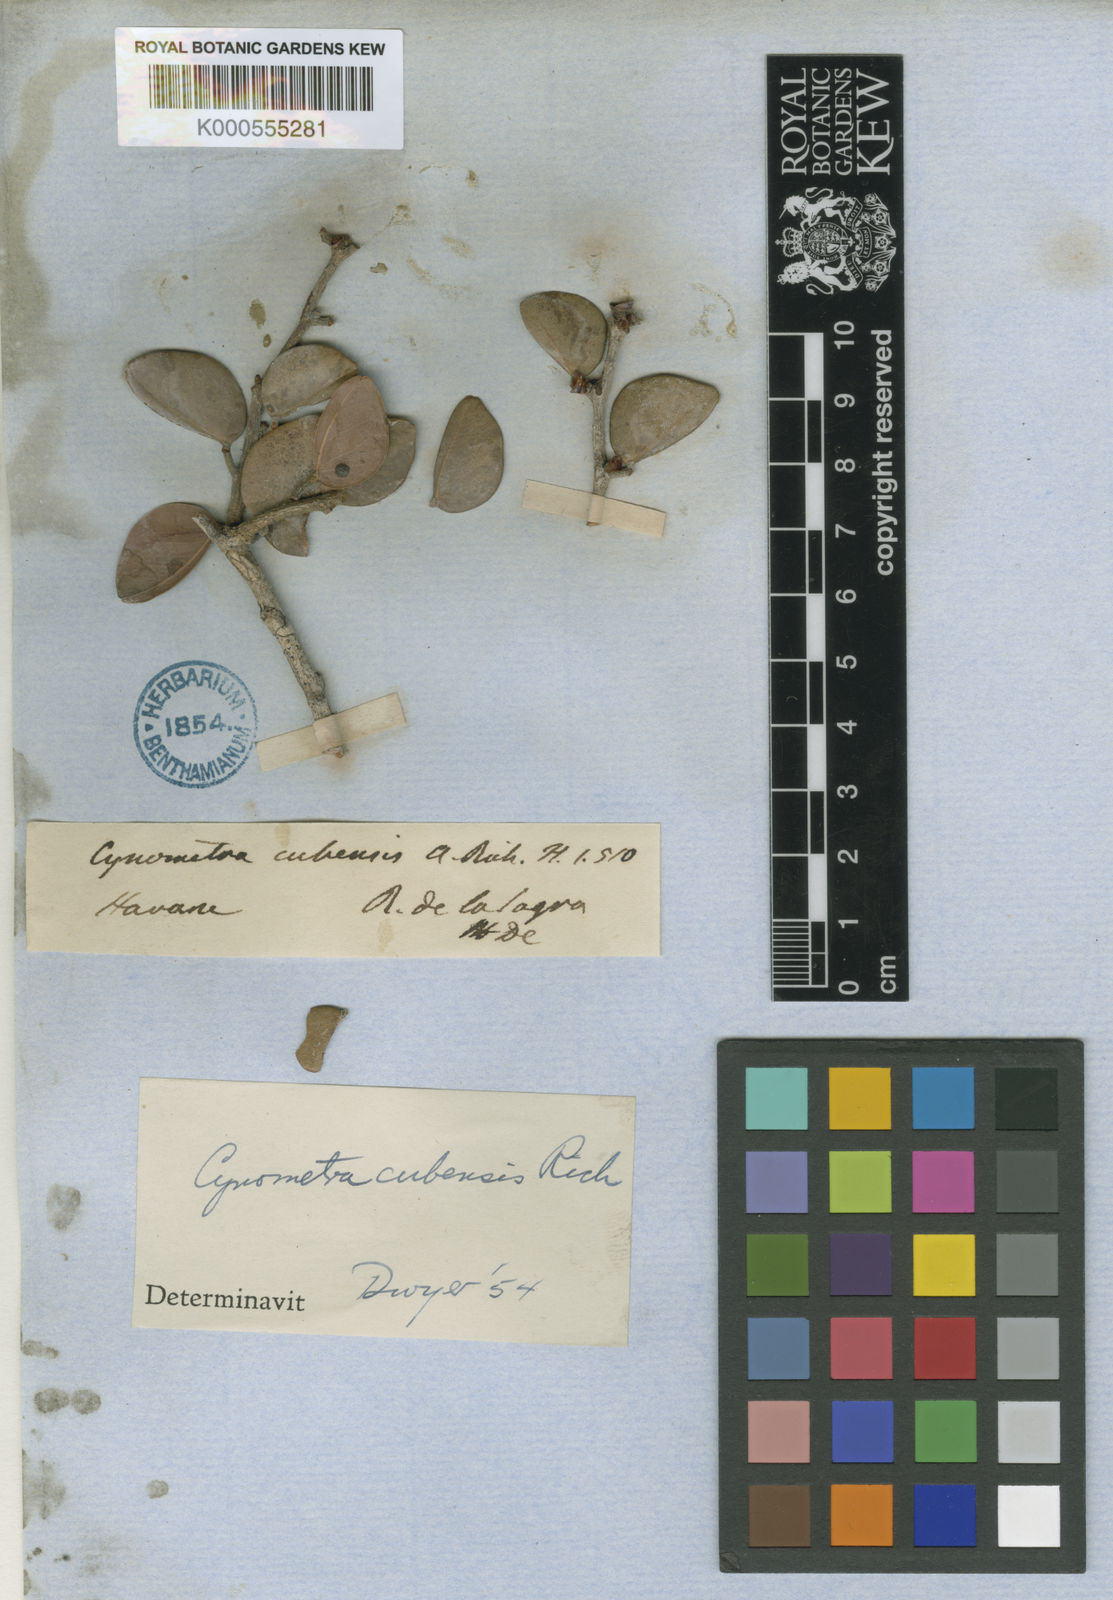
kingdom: Plantae
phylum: Tracheophyta
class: Magnoliopsida
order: Fabales
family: Fabaceae
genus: Cynometra
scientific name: Cynometra cubensis
